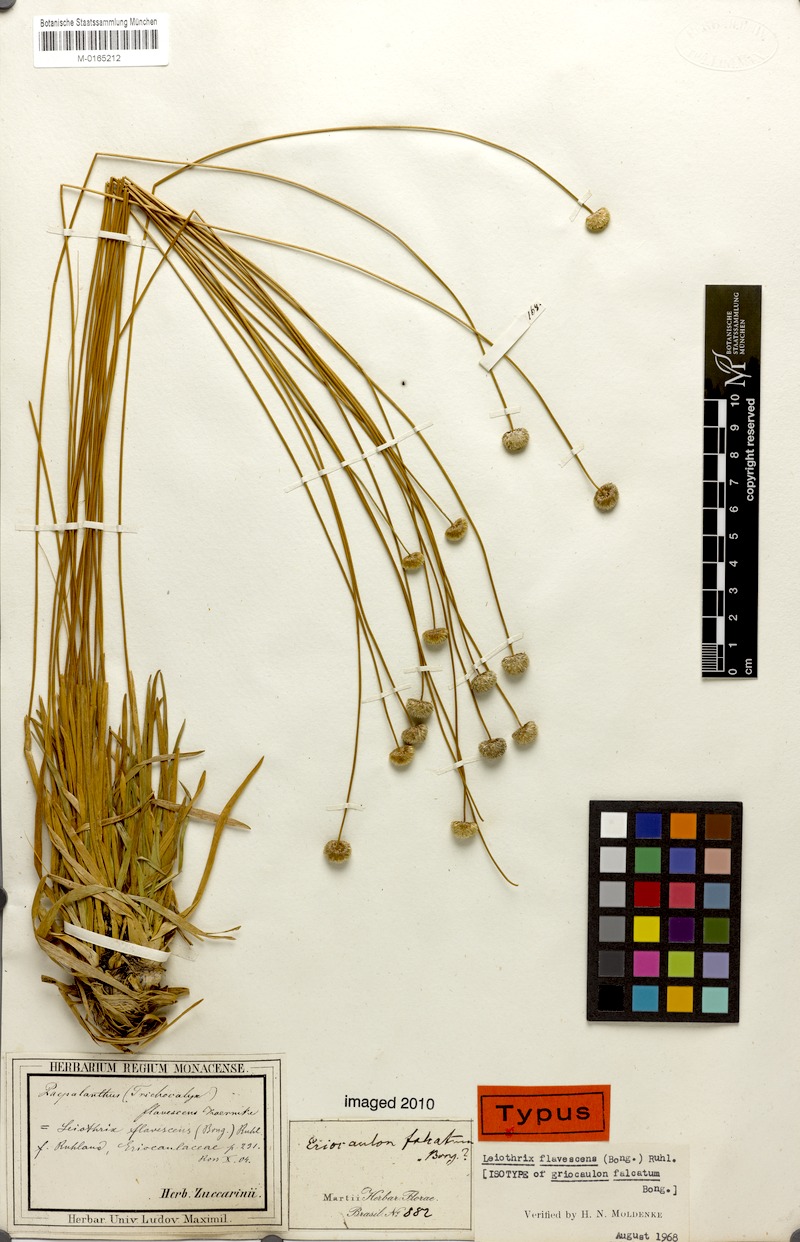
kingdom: Plantae
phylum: Tracheophyta
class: Liliopsida
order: Poales
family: Eriocaulaceae
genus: Leiothrix
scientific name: Leiothrix flavescens
